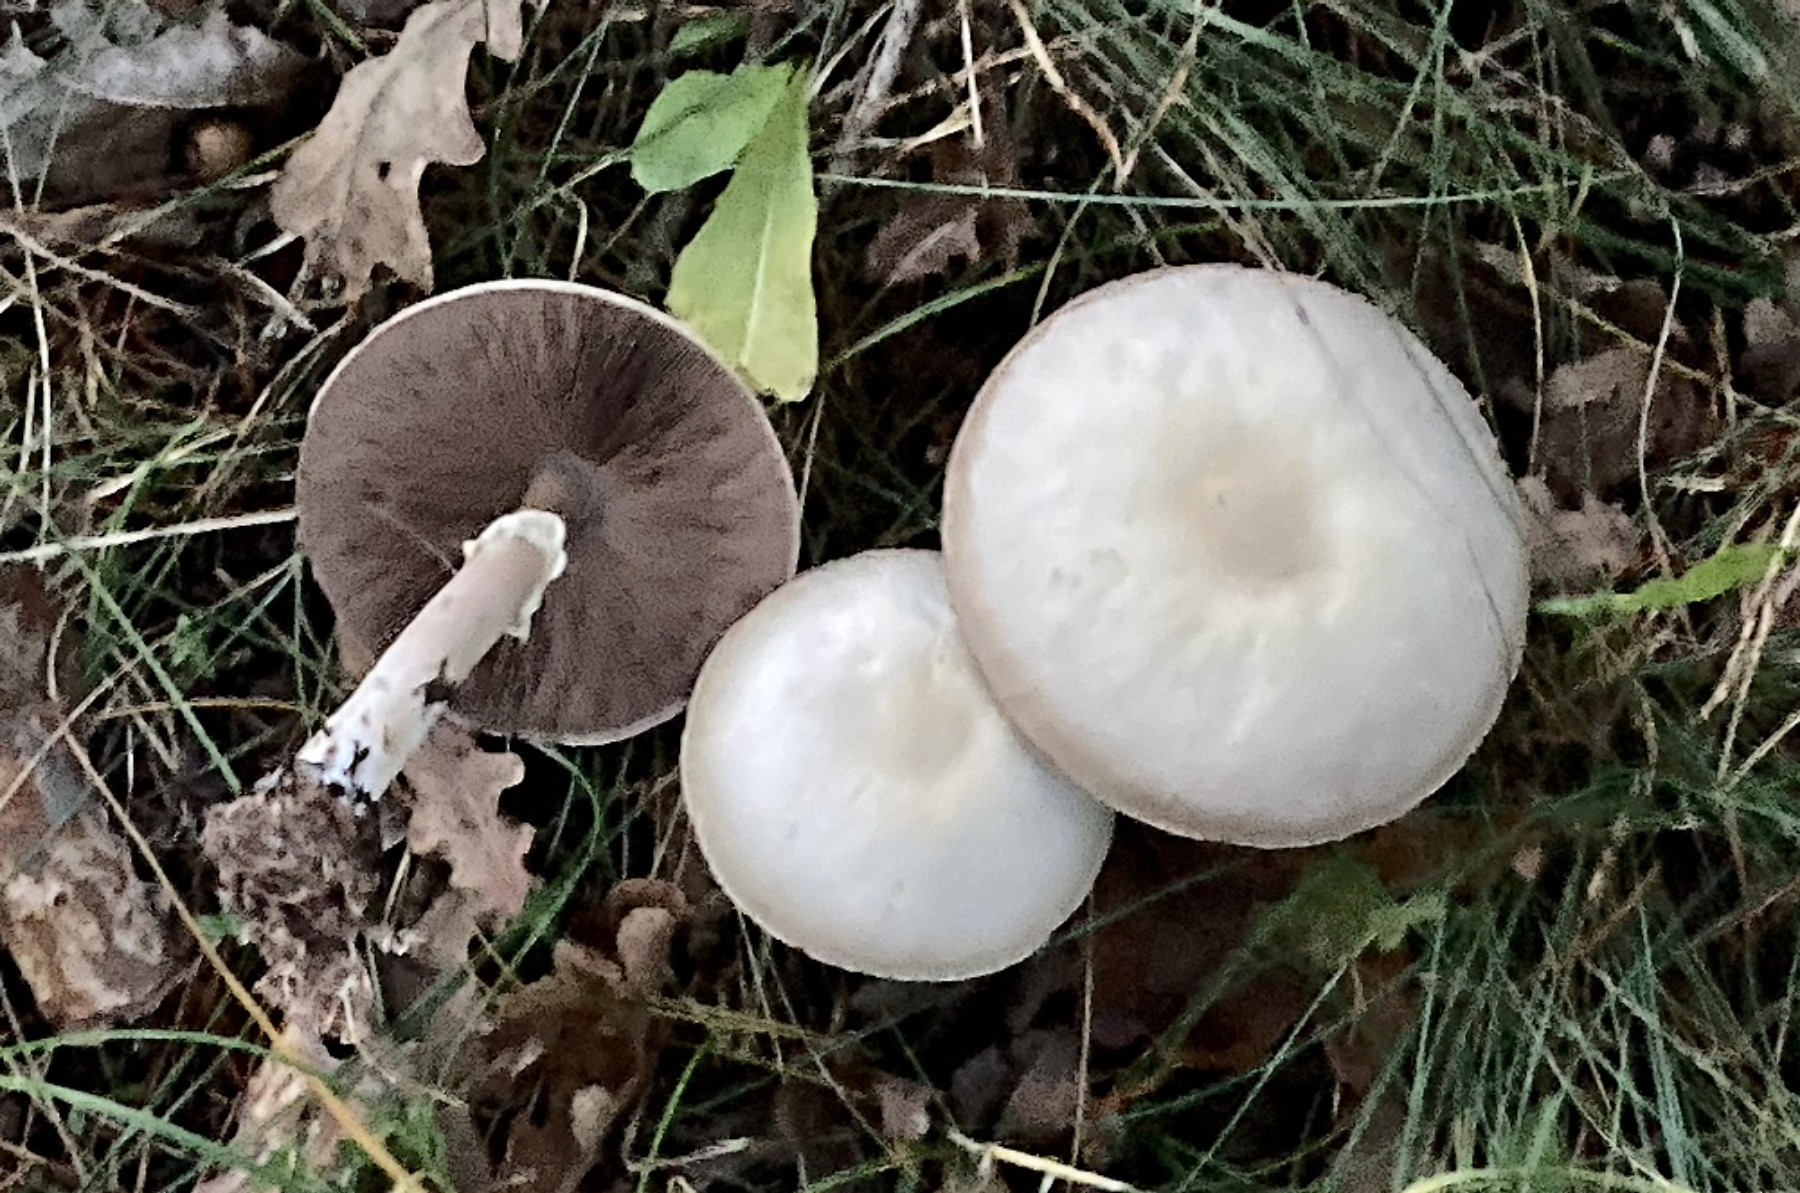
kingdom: Fungi
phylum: Basidiomycota
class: Agaricomycetes
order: Agaricales
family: Agaricaceae
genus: Agaricus
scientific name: Agaricus sylvicola
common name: gulhvid champignon
